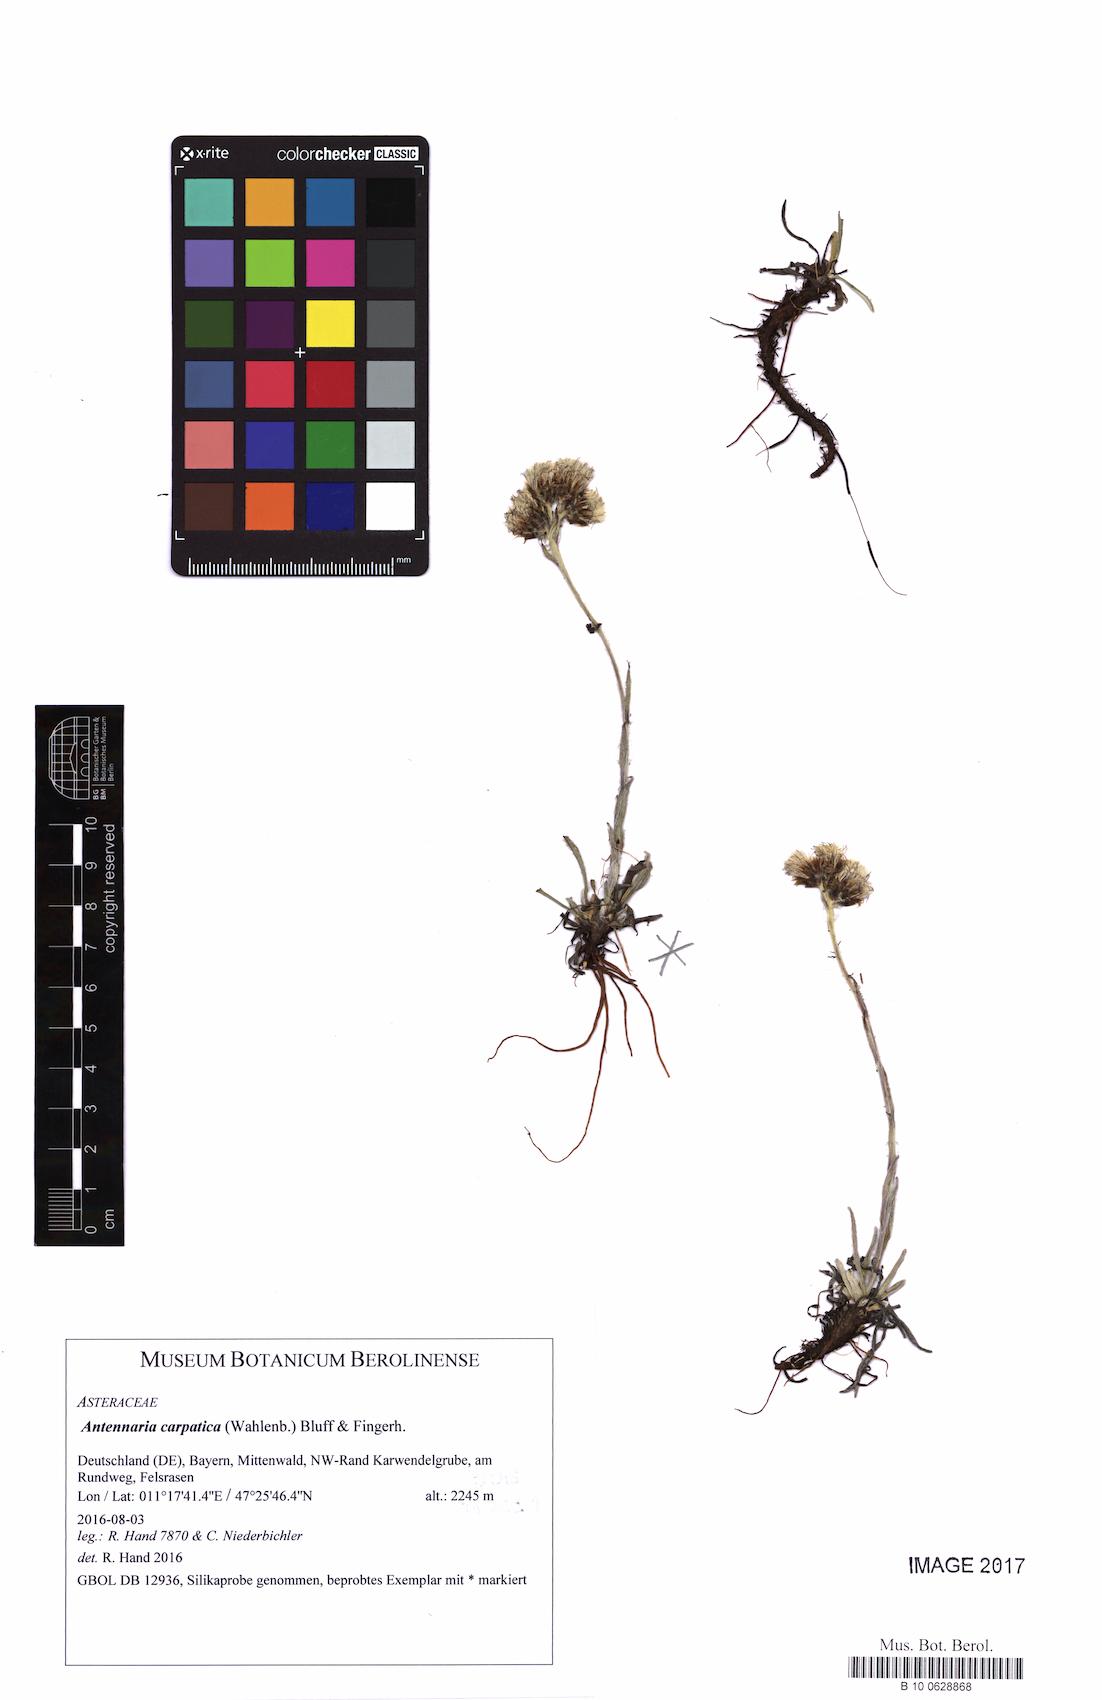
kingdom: Plantae
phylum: Tracheophyta
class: Magnoliopsida
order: Asterales
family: Asteraceae
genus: Antennaria
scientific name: Antennaria carpatica
